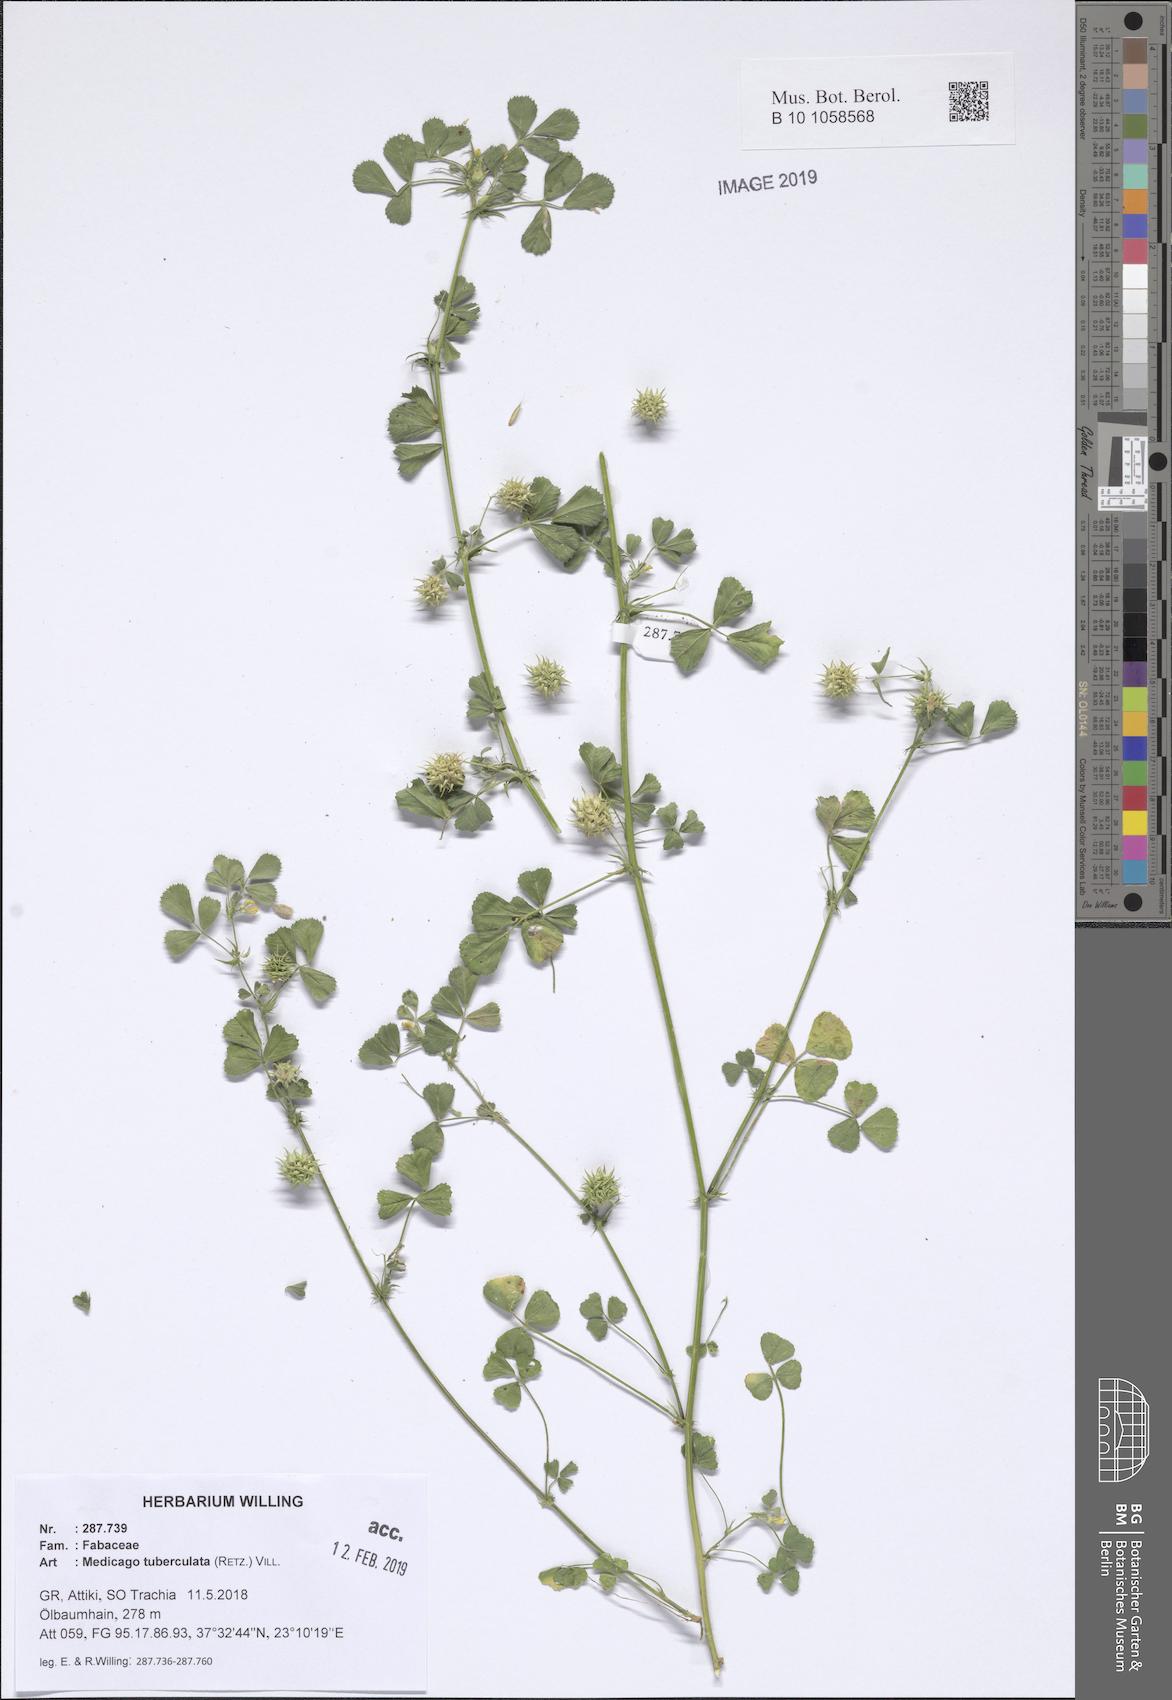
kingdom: Plantae
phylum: Tracheophyta
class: Magnoliopsida
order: Fabales
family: Fabaceae
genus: Medicago
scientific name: Medicago turbinata
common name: Southern medick
